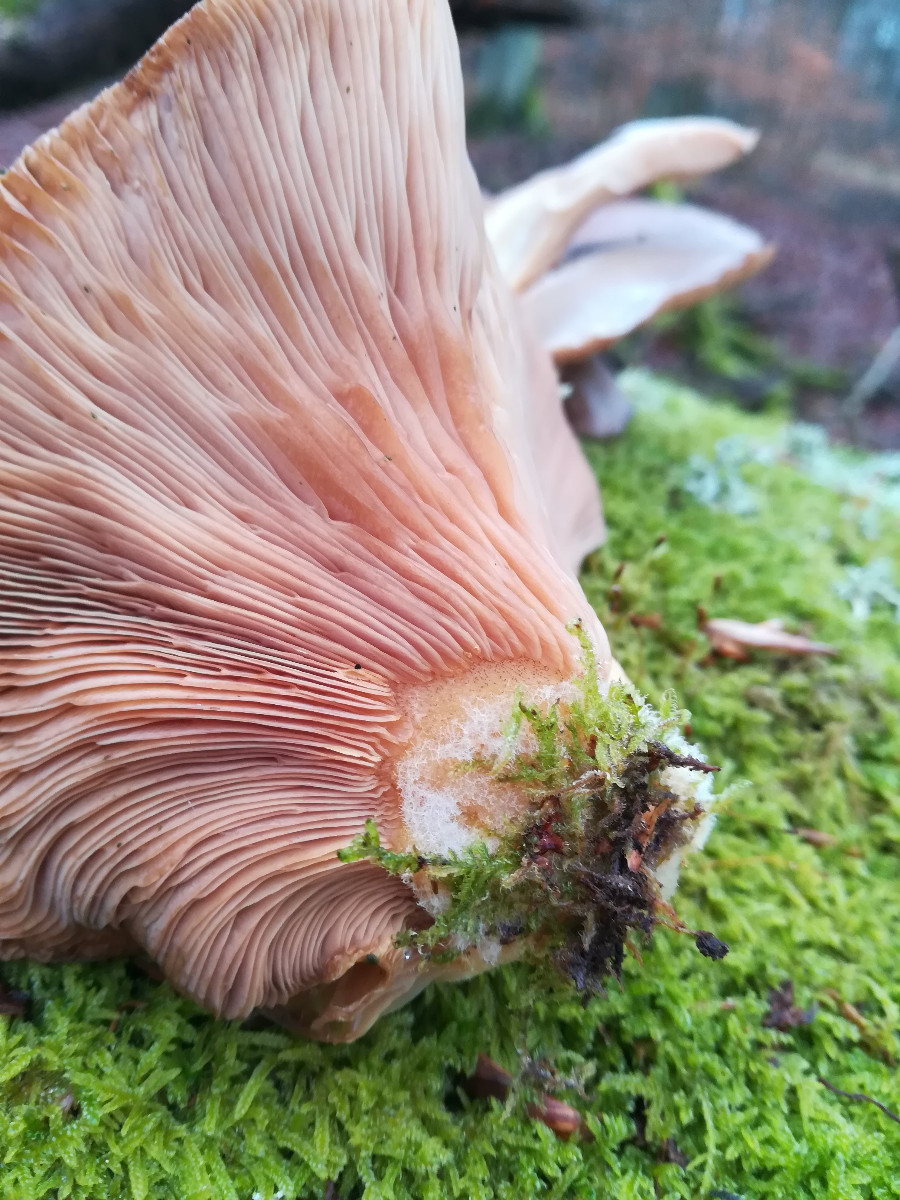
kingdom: Fungi
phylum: Basidiomycota
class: Agaricomycetes
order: Agaricales
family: Sarcomyxaceae
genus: Sarcomyxa
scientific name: Sarcomyxa serotina
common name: gummihat
